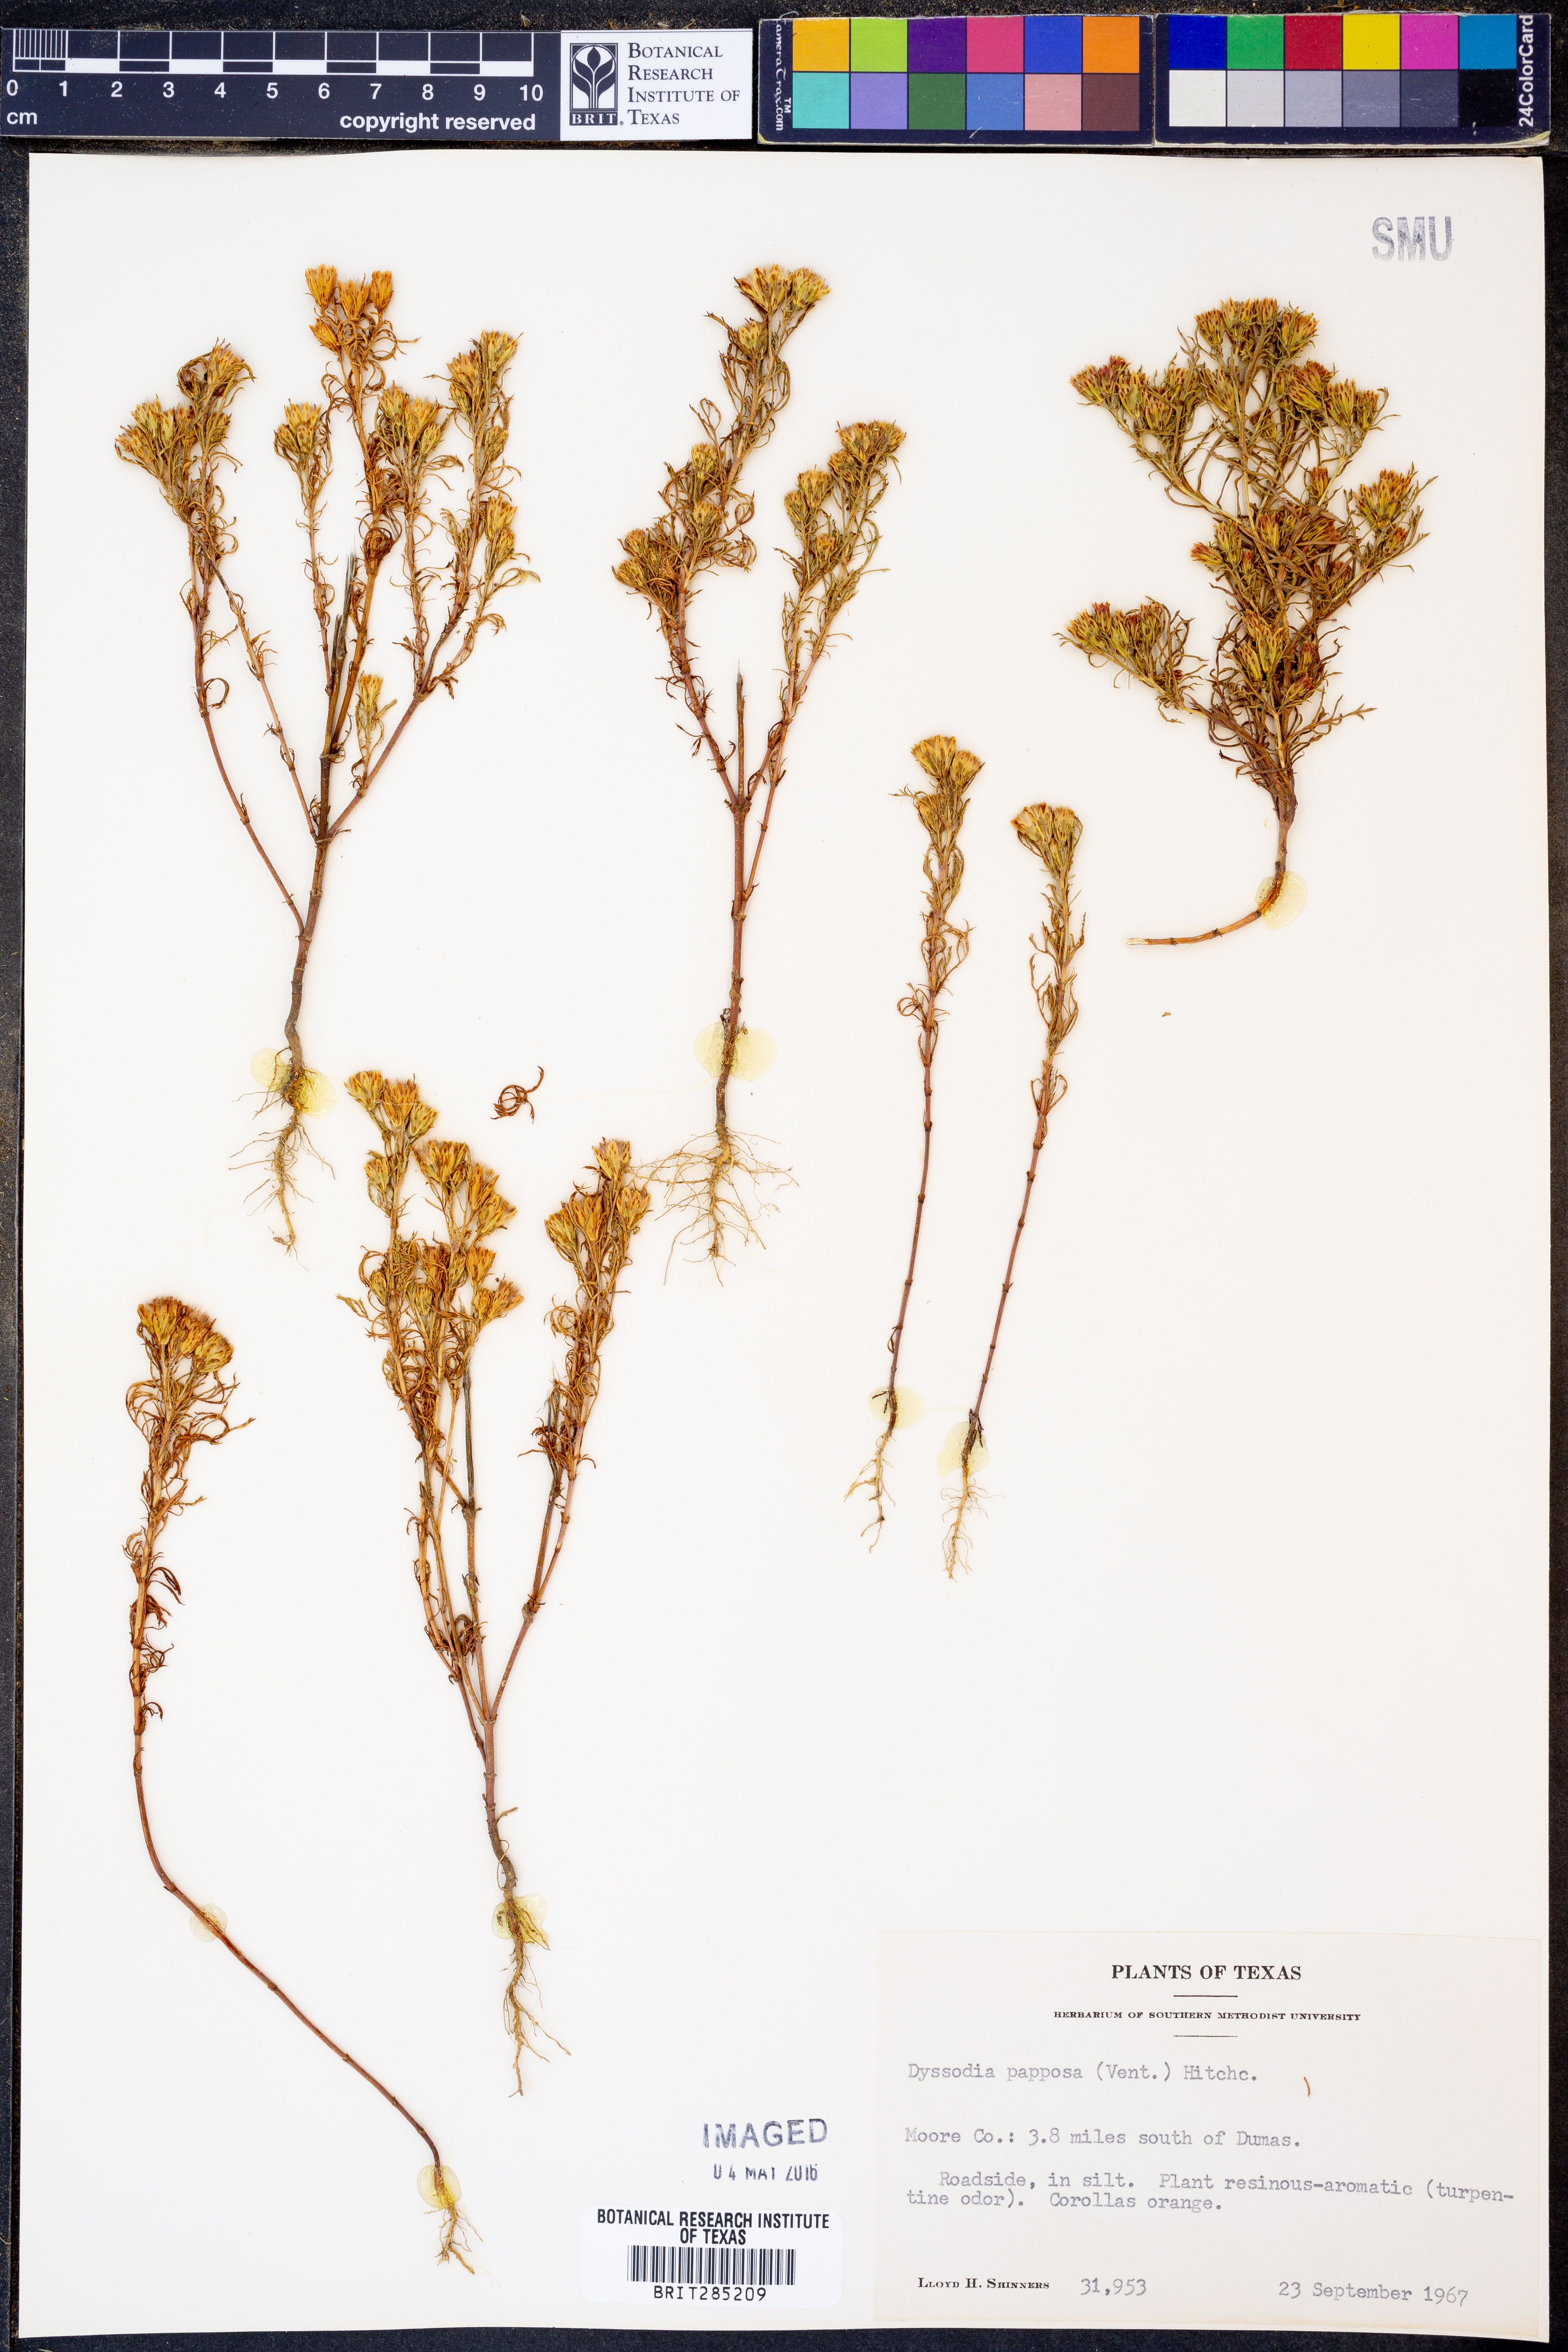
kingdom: Plantae
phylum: Tracheophyta
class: Magnoliopsida
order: Asterales
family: Asteraceae
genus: Dyssodia
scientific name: Dyssodia papposa
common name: Dogweed
